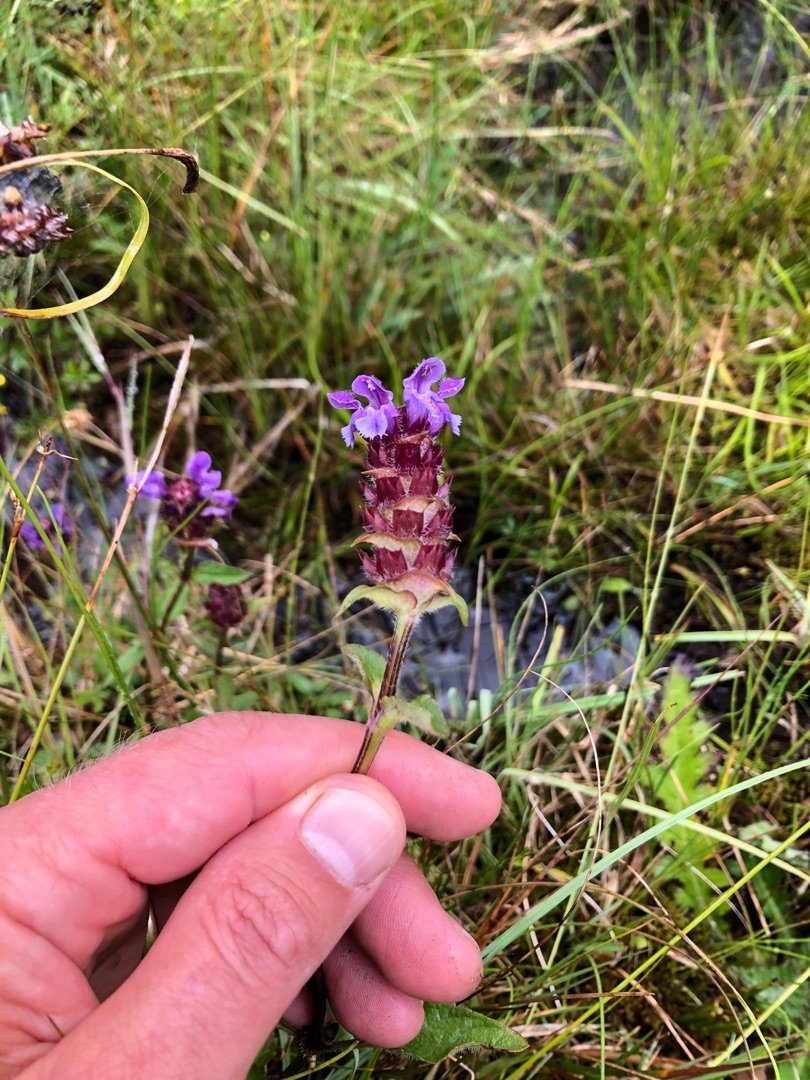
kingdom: Plantae
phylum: Tracheophyta
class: Magnoliopsida
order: Lamiales
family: Lamiaceae
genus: Prunella
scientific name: Prunella vulgaris
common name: Almindelig brunelle
